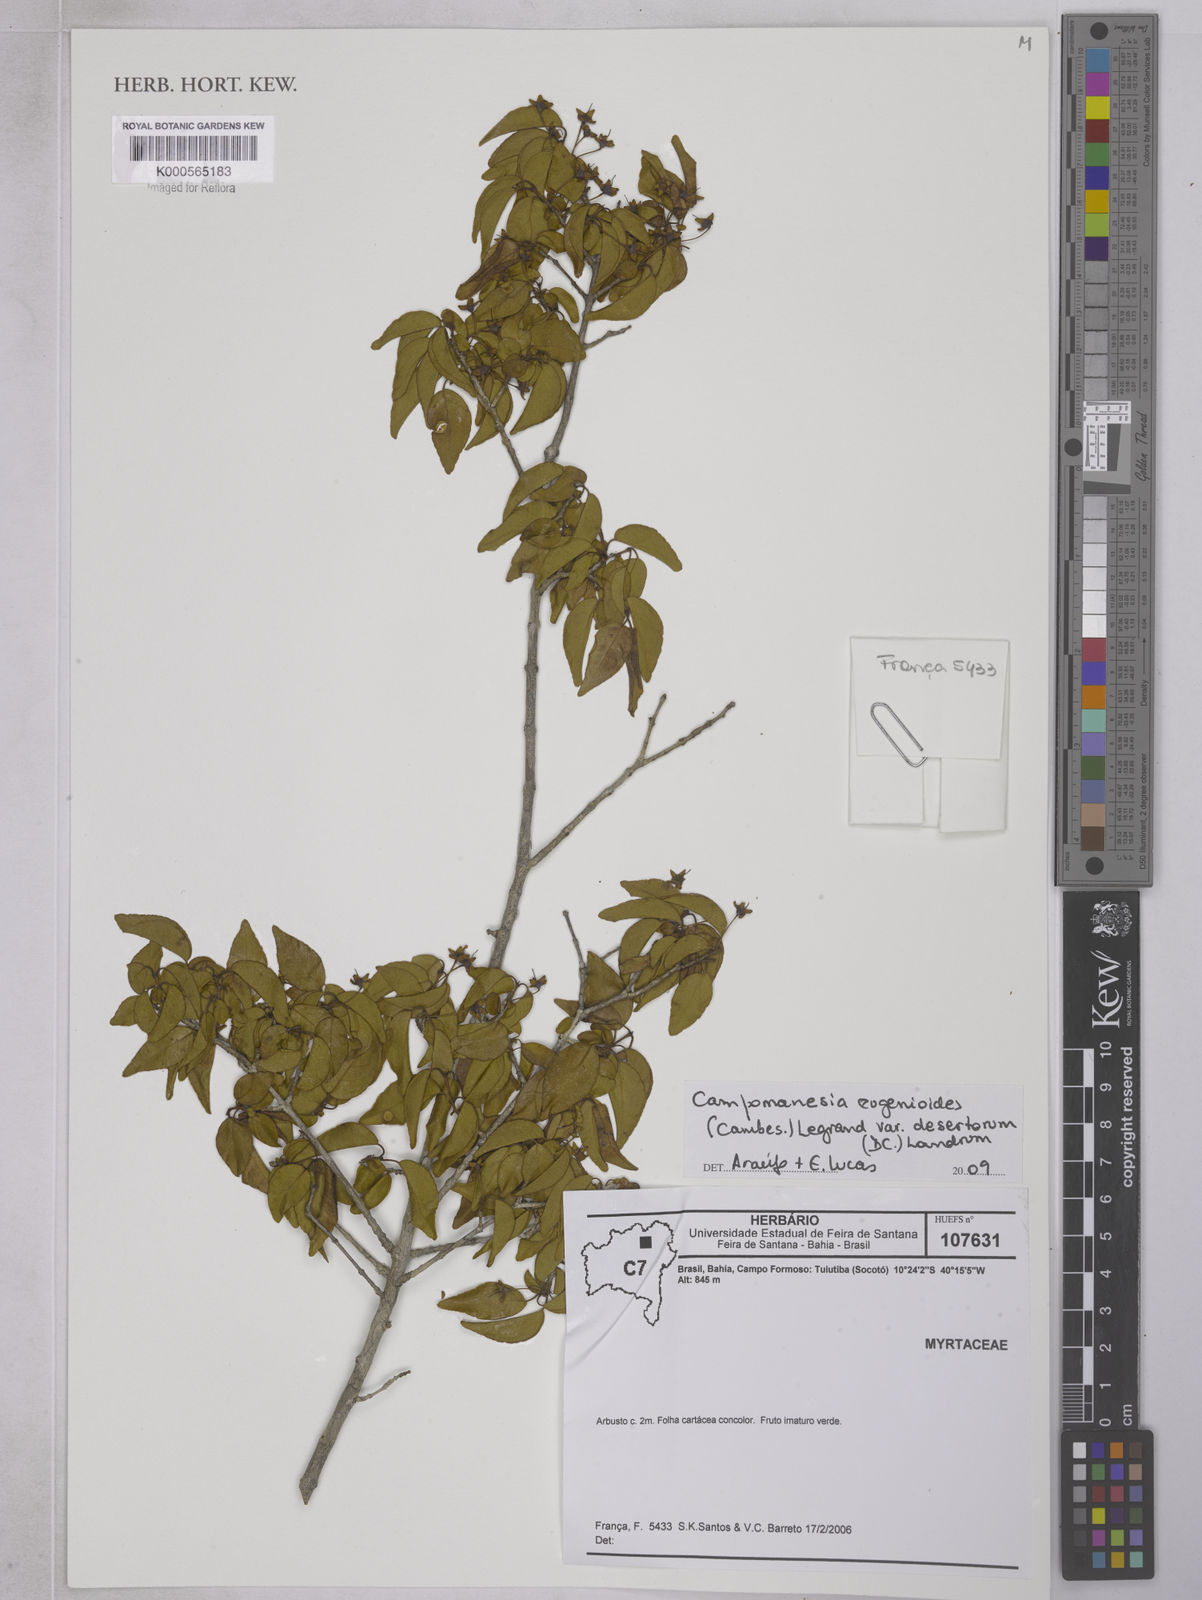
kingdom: Plantae
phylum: Tracheophyta
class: Magnoliopsida
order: Myrtales
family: Myrtaceae
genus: Campomanesia
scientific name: Campomanesia
